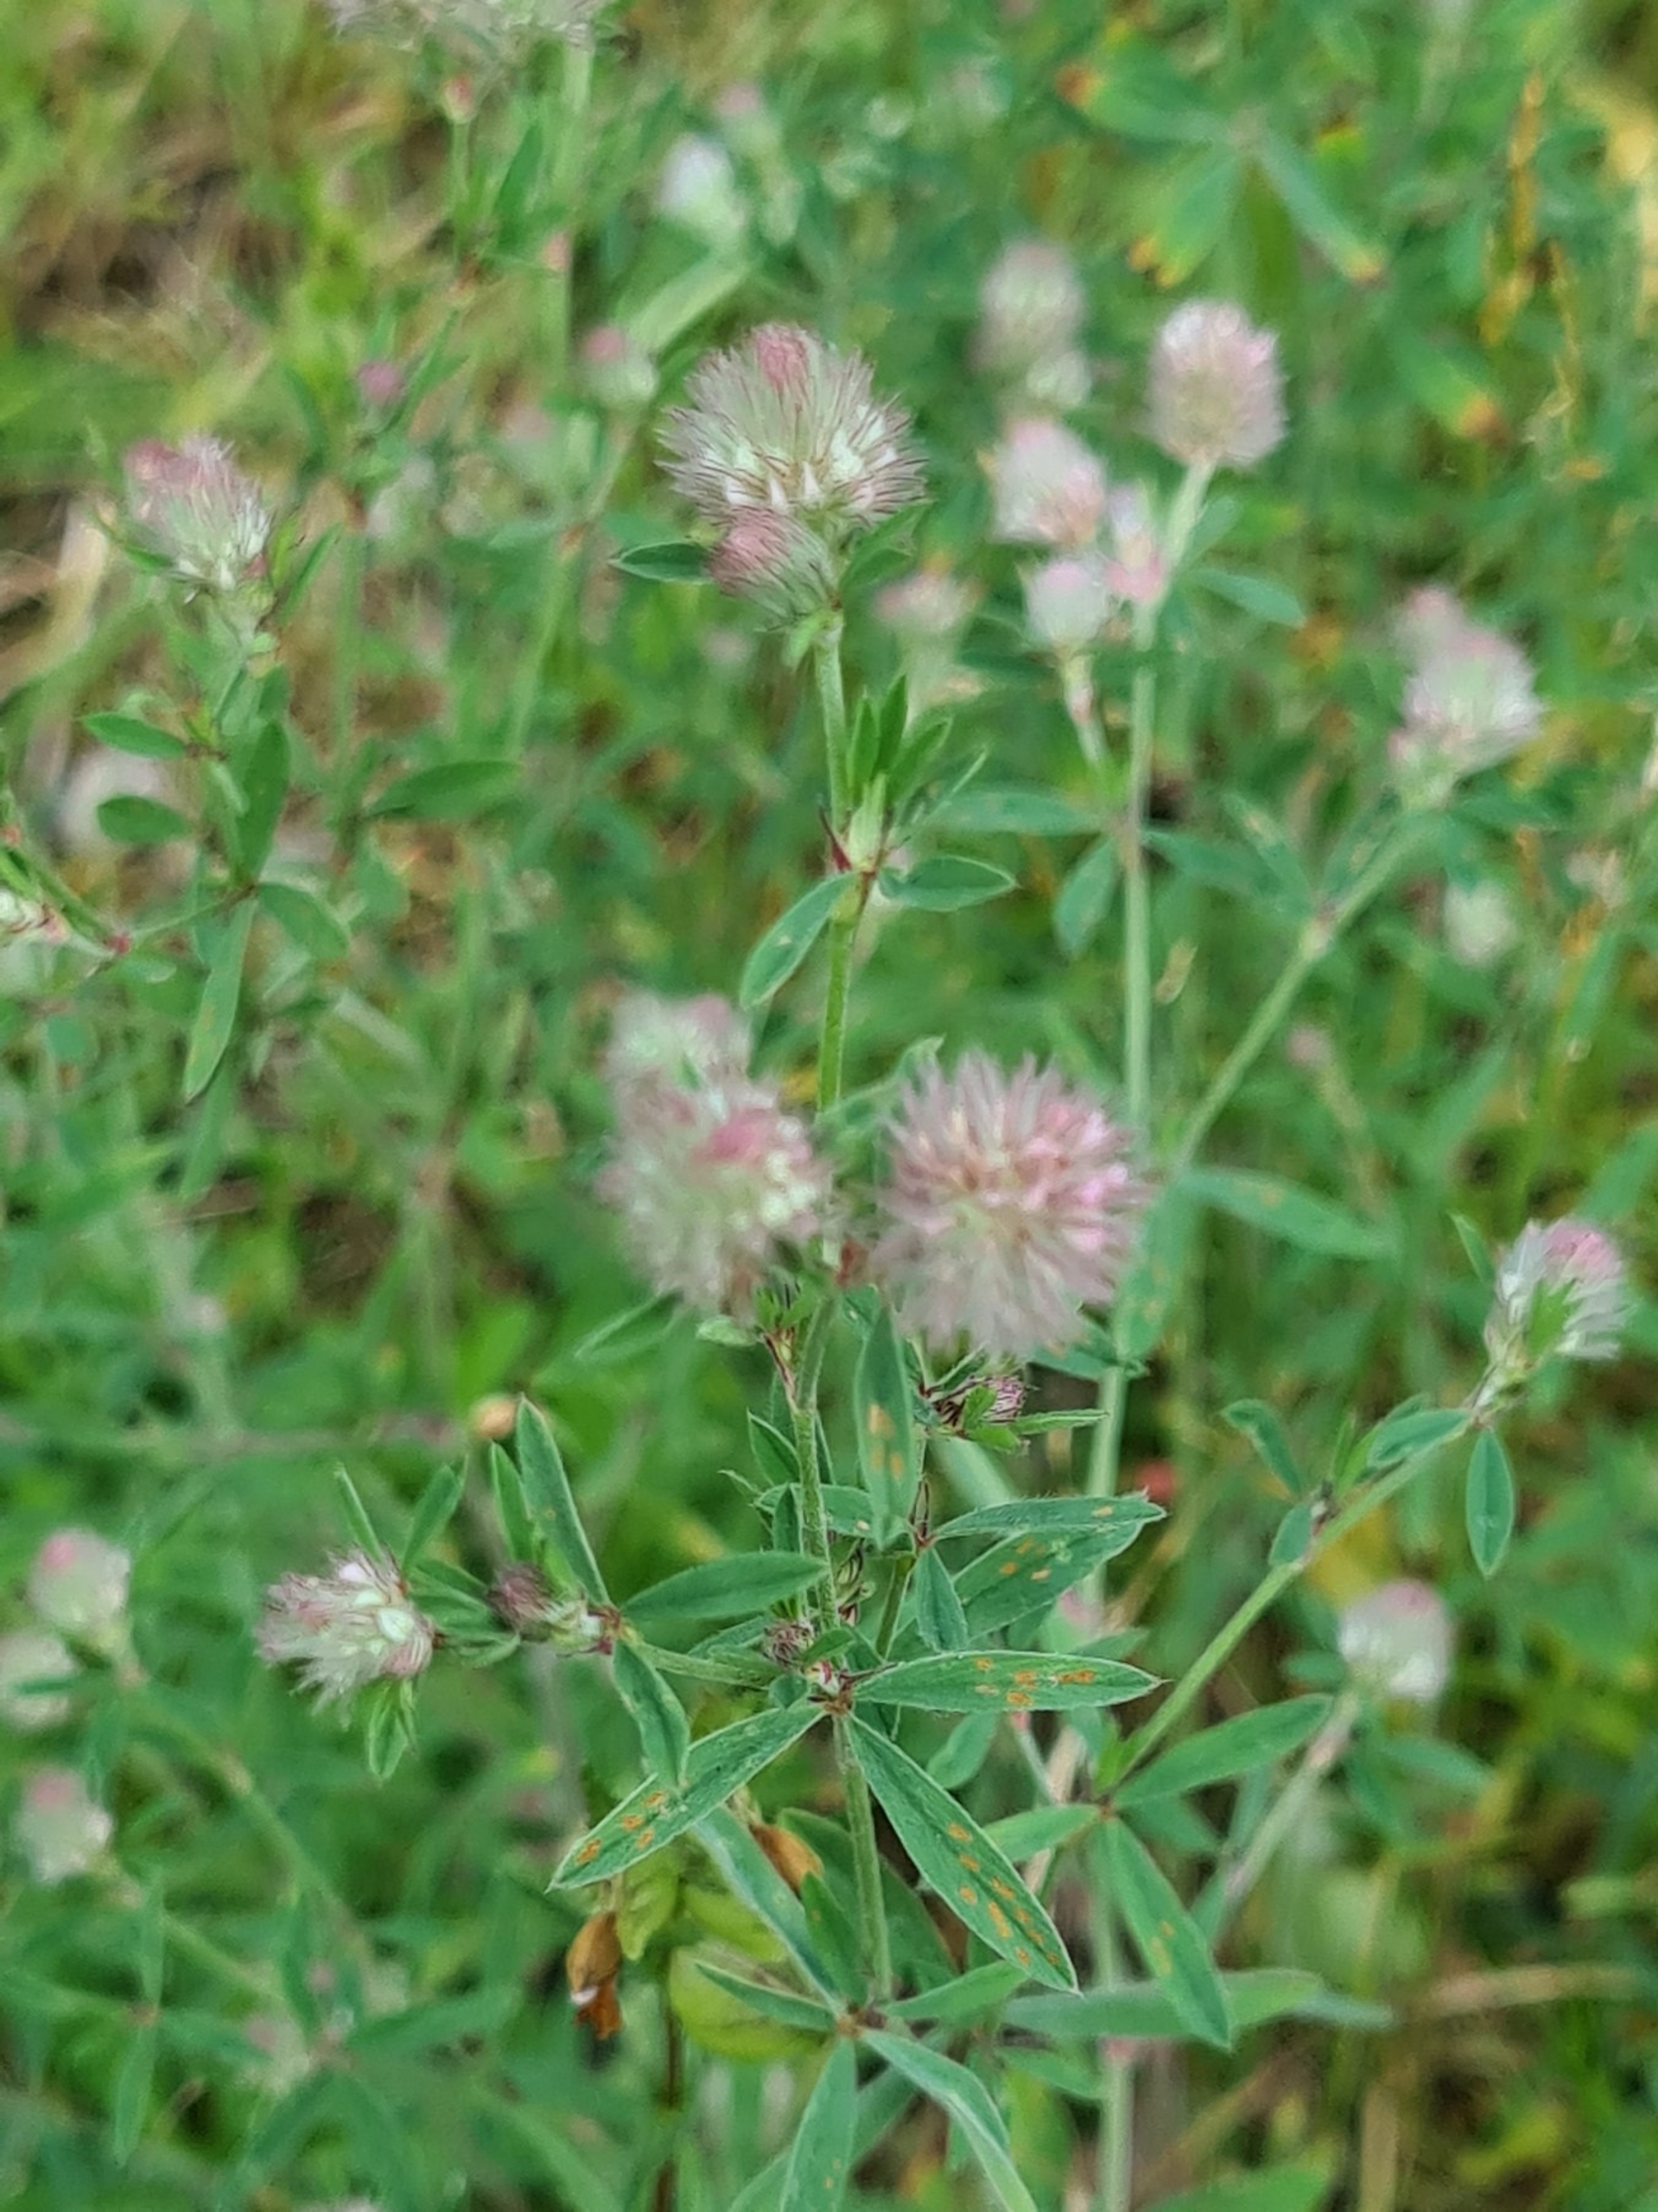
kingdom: Plantae
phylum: Tracheophyta
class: Magnoliopsida
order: Fabales
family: Fabaceae
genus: Trifolium
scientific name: Trifolium arvense
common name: Hare-kløver
